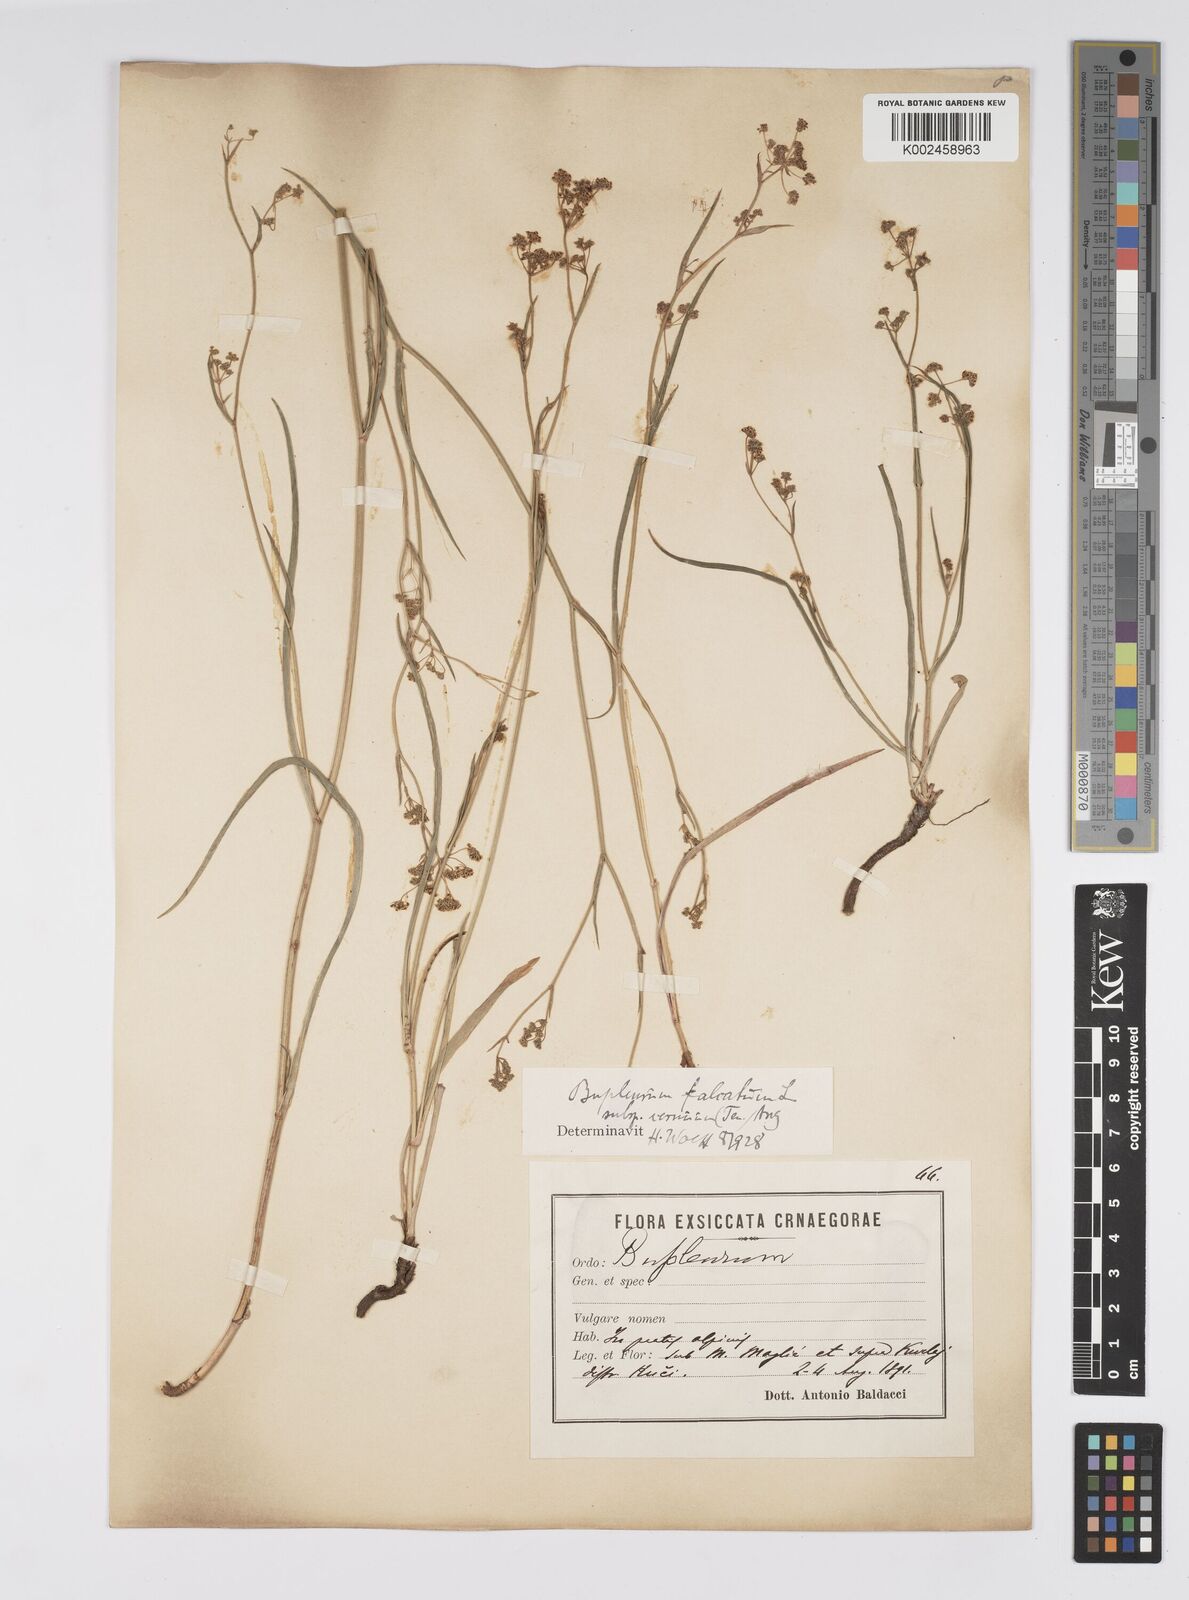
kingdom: Plantae
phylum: Tracheophyta
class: Magnoliopsida
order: Apiales
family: Apiaceae
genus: Bupleurum
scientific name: Bupleurum falcatum
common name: Sickle-leaved hare's-ear
